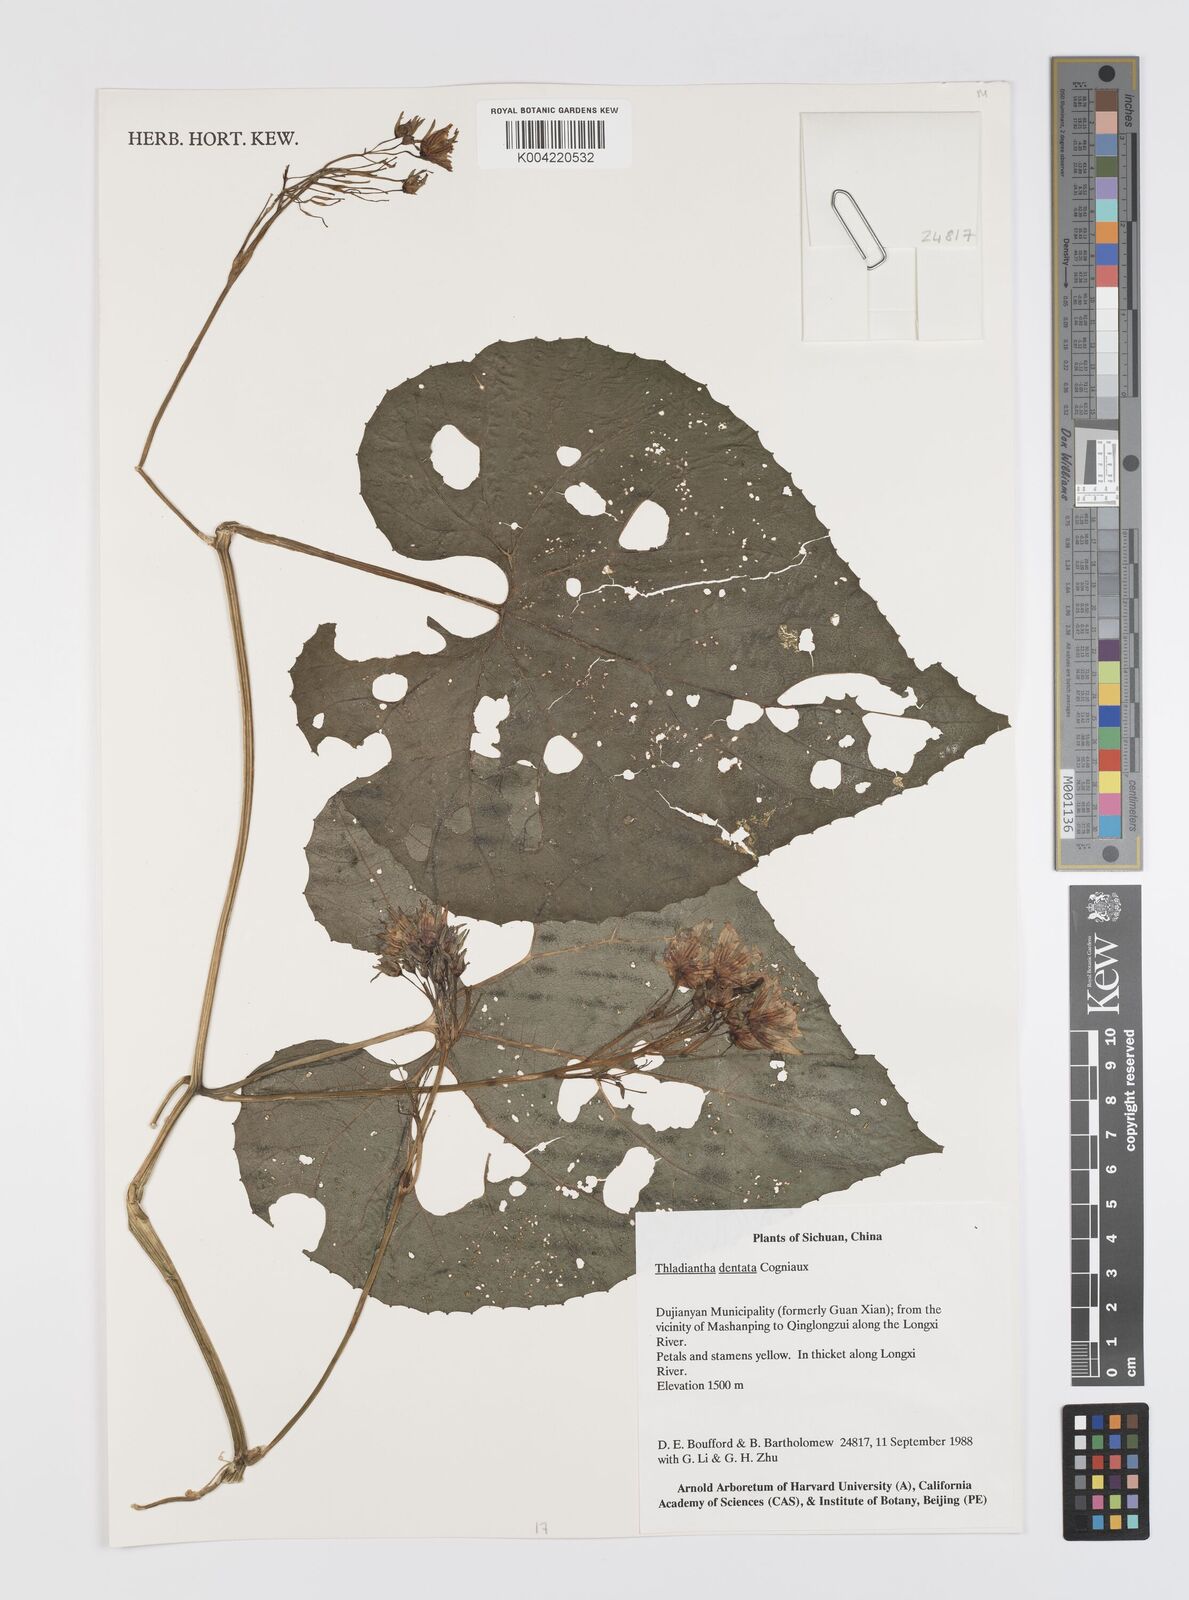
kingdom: Plantae
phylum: Tracheophyta
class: Magnoliopsida
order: Cucurbitales
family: Cucurbitaceae
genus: Thladiantha
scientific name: Thladiantha dentata
